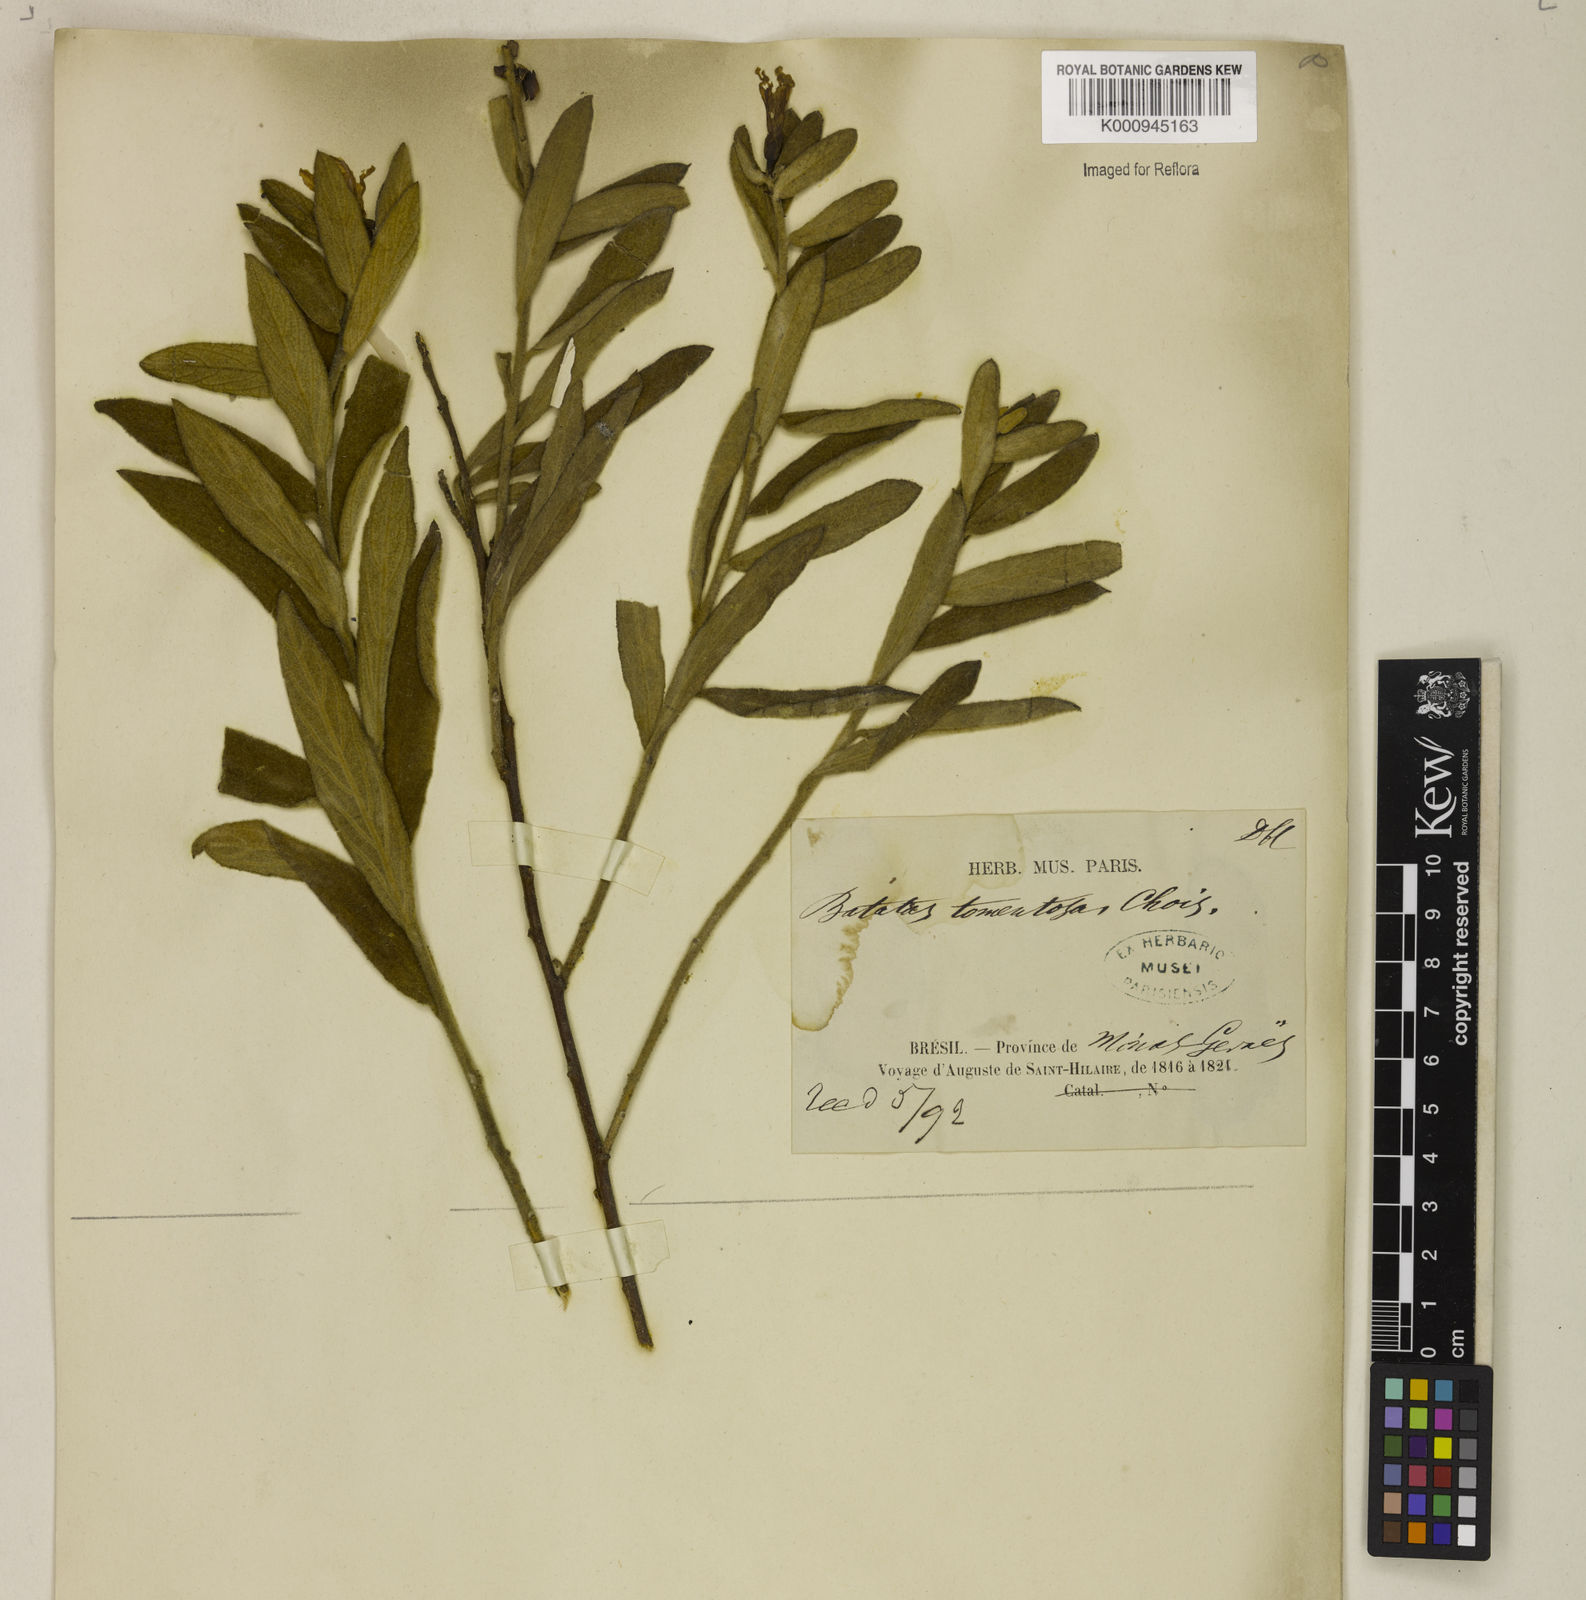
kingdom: Plantae
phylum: Tracheophyta
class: Magnoliopsida
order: Solanales
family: Convolvulaceae
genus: Distimake
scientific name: Distimake tomentosus
